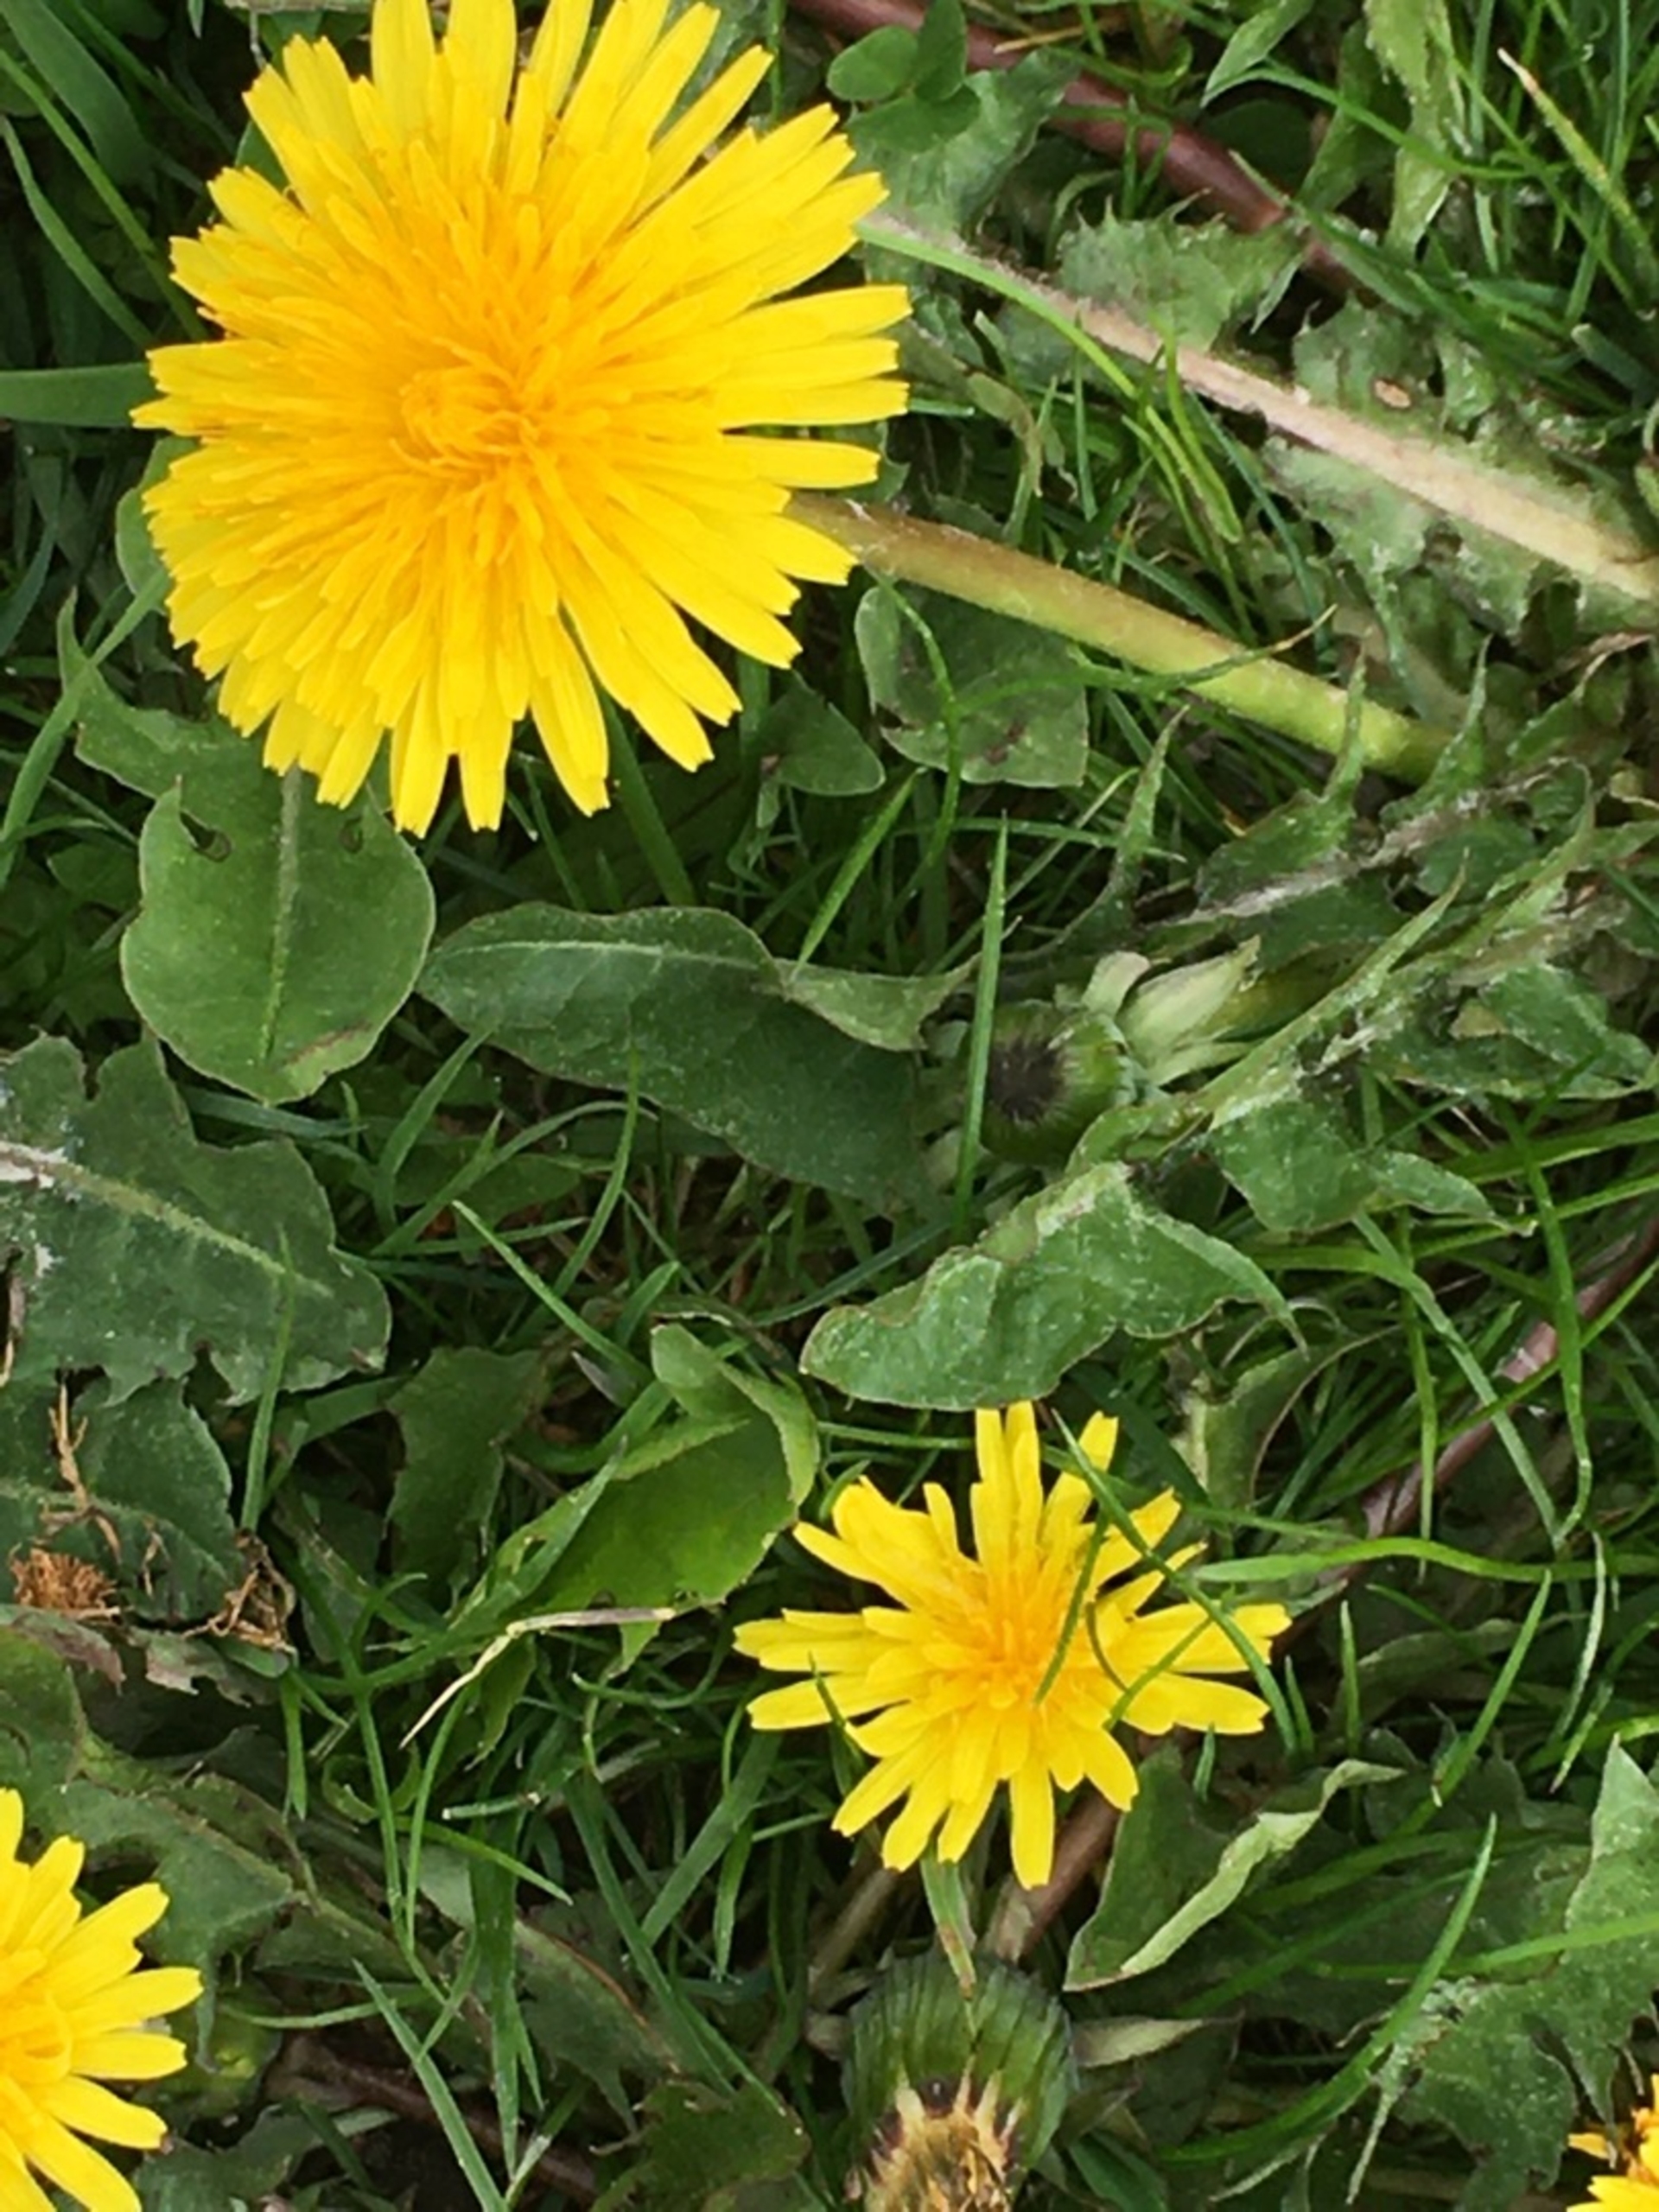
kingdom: Plantae
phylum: Tracheophyta
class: Magnoliopsida
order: Asterales
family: Asteraceae
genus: Taraxacum
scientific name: Taraxacum
